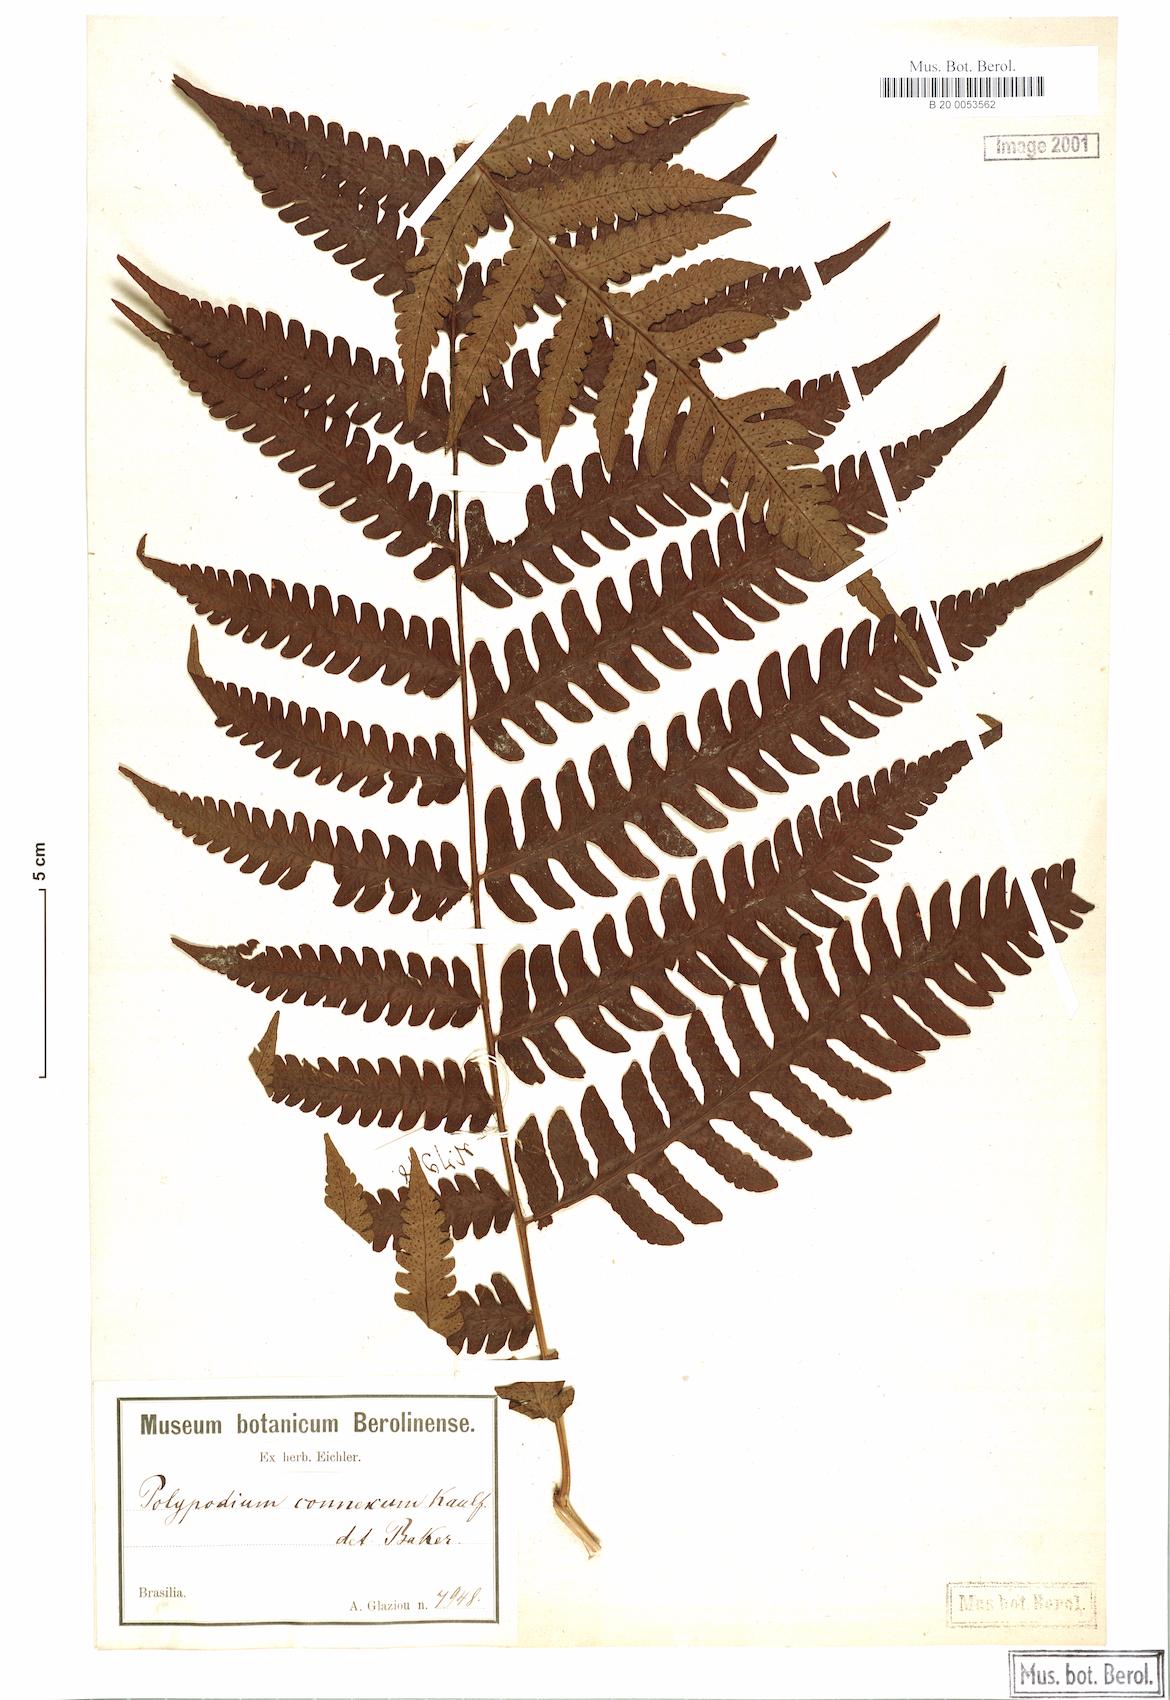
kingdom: Plantae
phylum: Tracheophyta
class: Polypodiopsida
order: Polypodiales
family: Dryopteridaceae
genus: Megalastrum
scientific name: Megalastrum connexum
